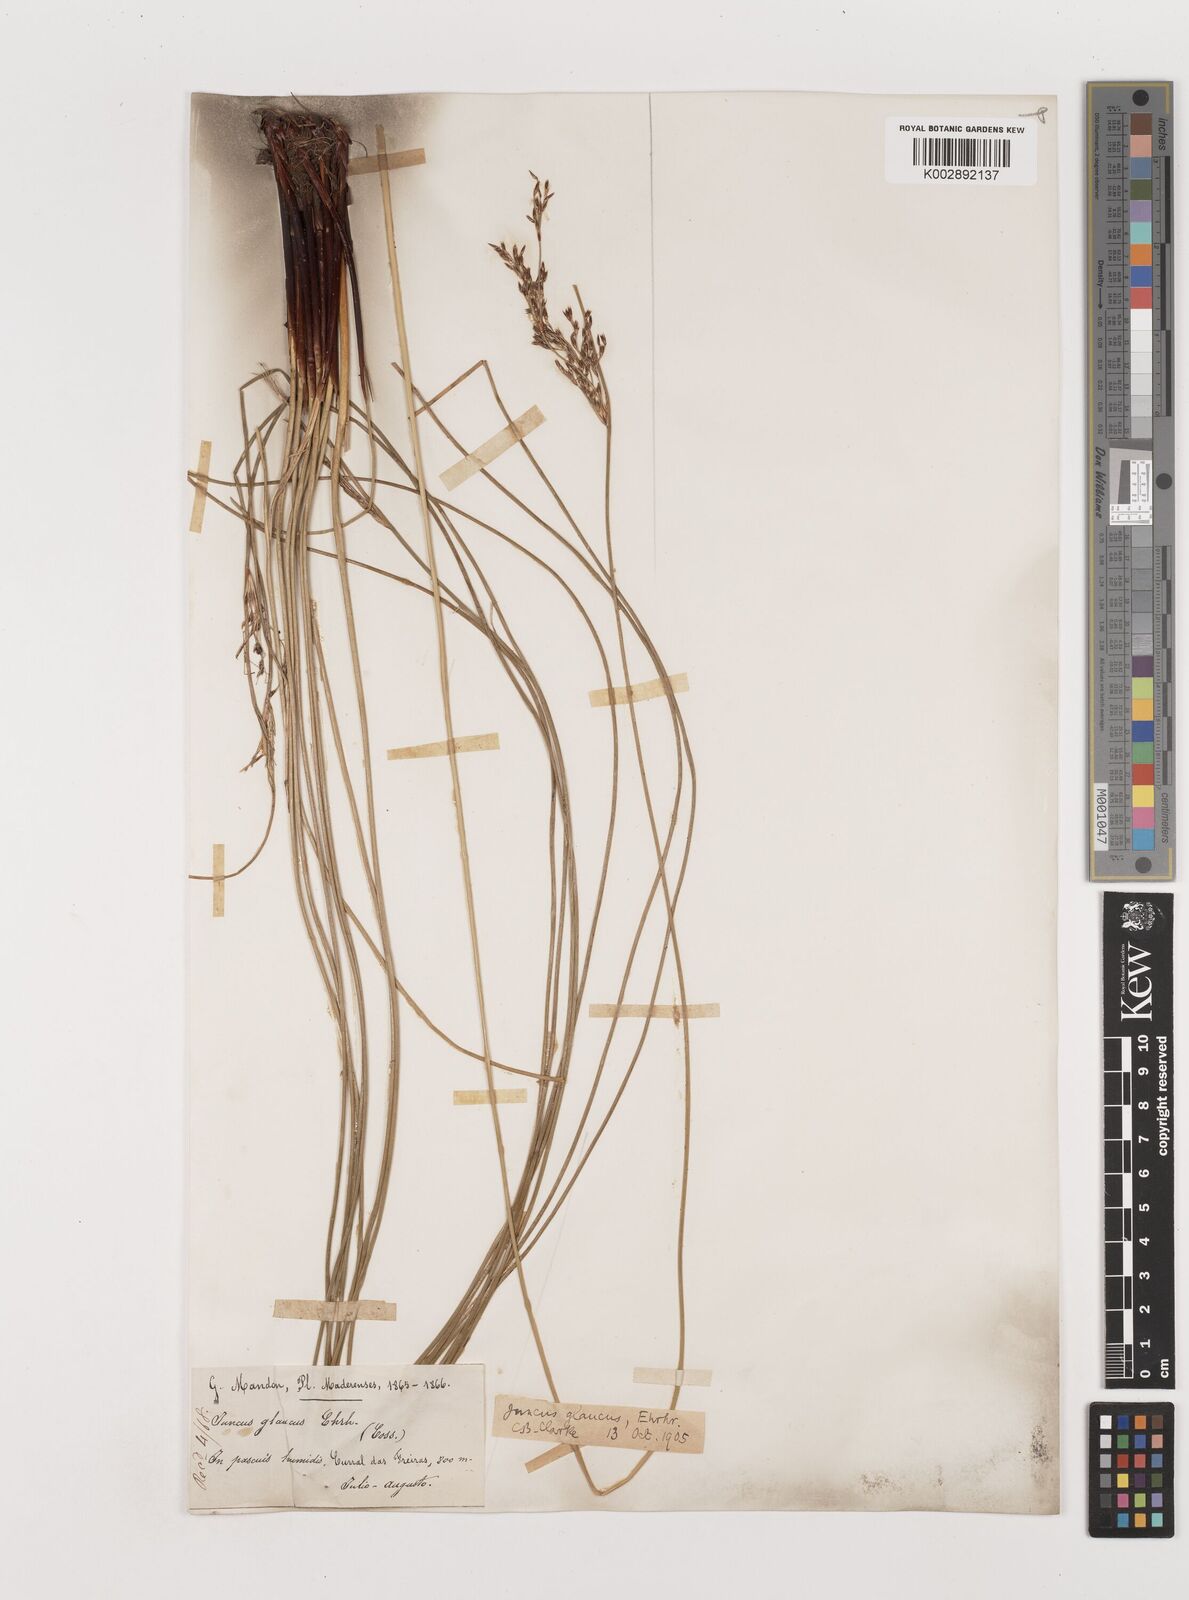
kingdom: Plantae
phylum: Tracheophyta
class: Liliopsida
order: Poales
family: Juncaceae
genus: Juncus
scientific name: Juncus inflexus
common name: Hard rush
